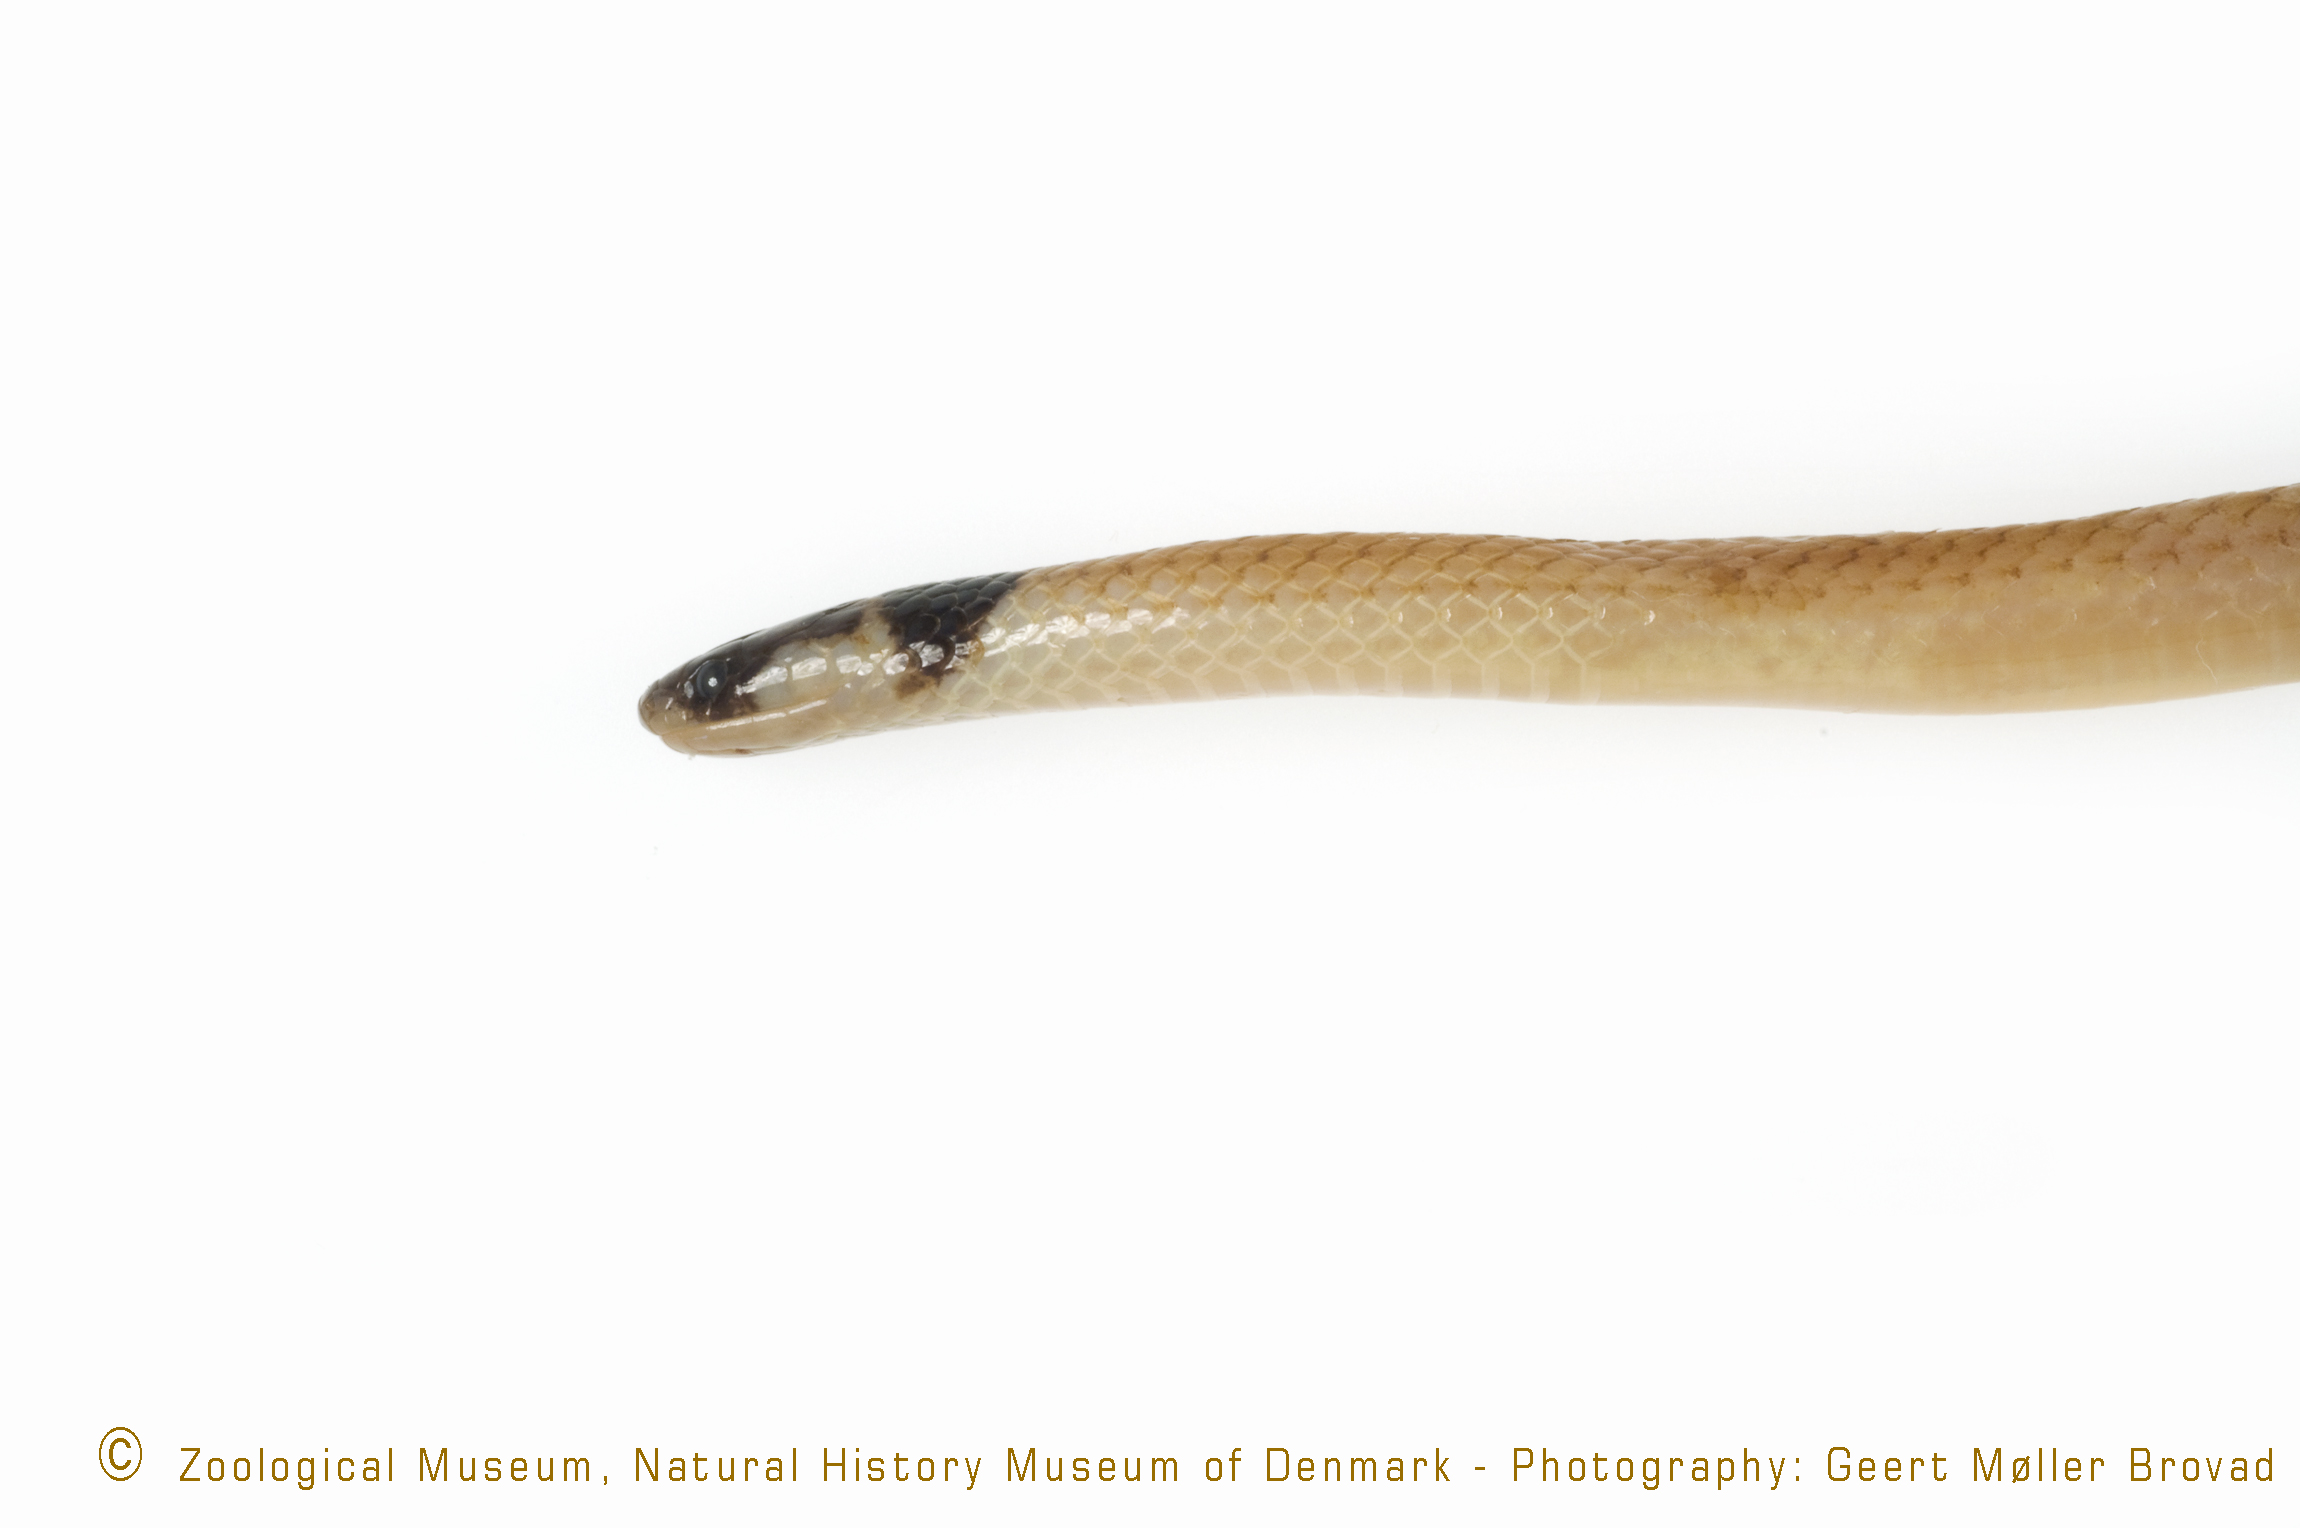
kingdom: Animalia
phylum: Chordata
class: Squamata
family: Atractaspididae
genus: Aparallactus
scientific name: Aparallactus capensis
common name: Cape centipede eater
